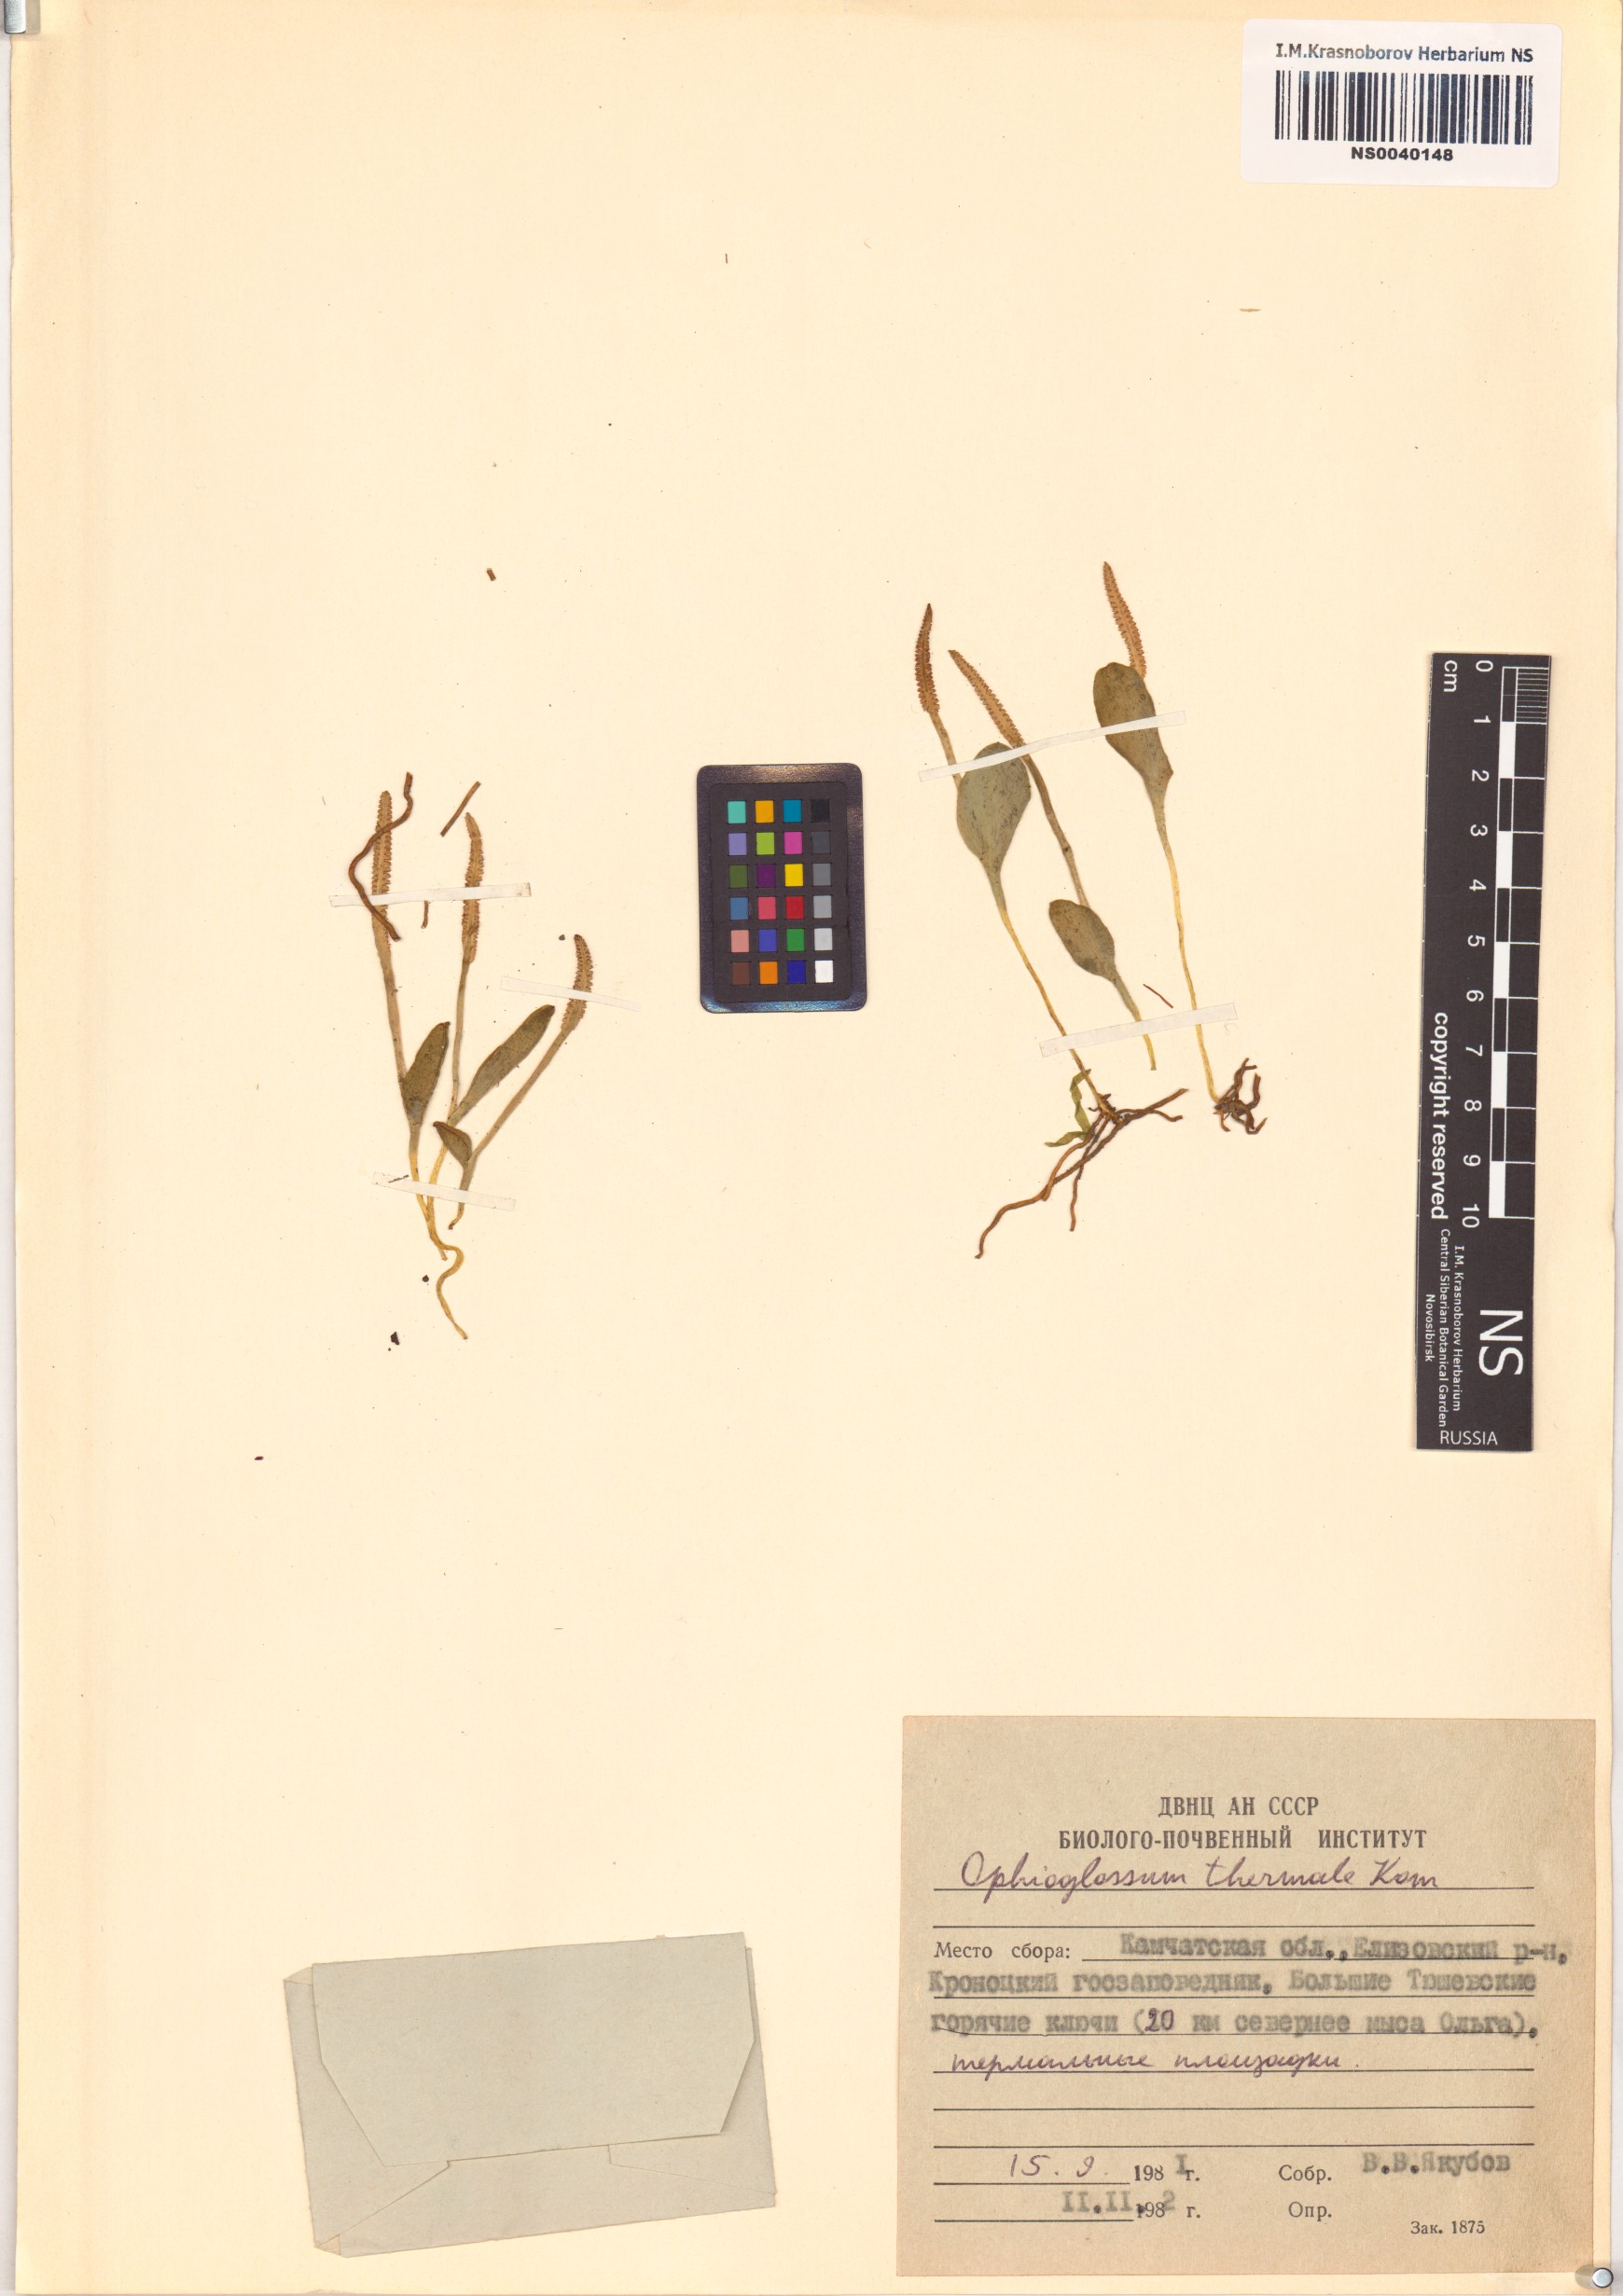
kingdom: Plantae
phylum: Tracheophyta
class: Polypodiopsida
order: Ophioglossales
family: Ophioglossaceae
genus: Ophioglossum
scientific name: Ophioglossum thermale
